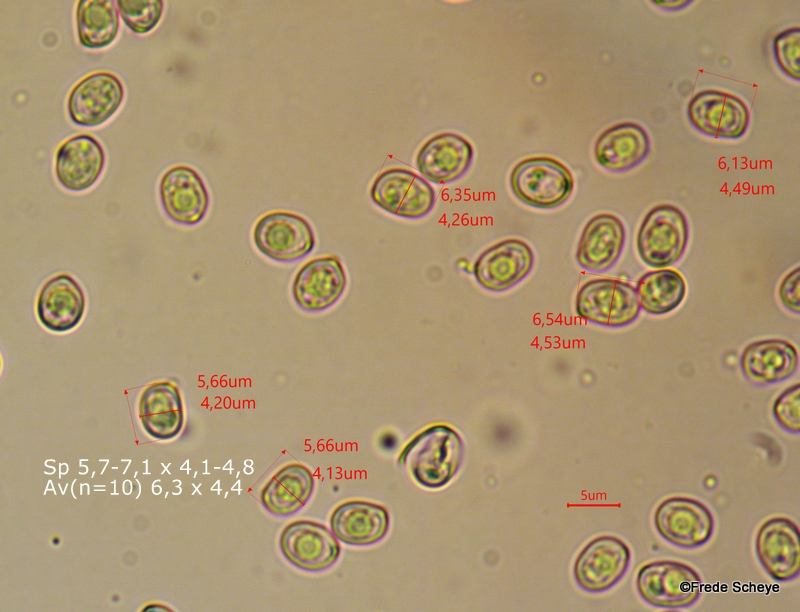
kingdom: Fungi
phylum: Basidiomycota
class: Agaricomycetes
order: Agaricales
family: Pluteaceae
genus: Pluteus
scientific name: Pluteus petasatus
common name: savsmulds-skærmhat
